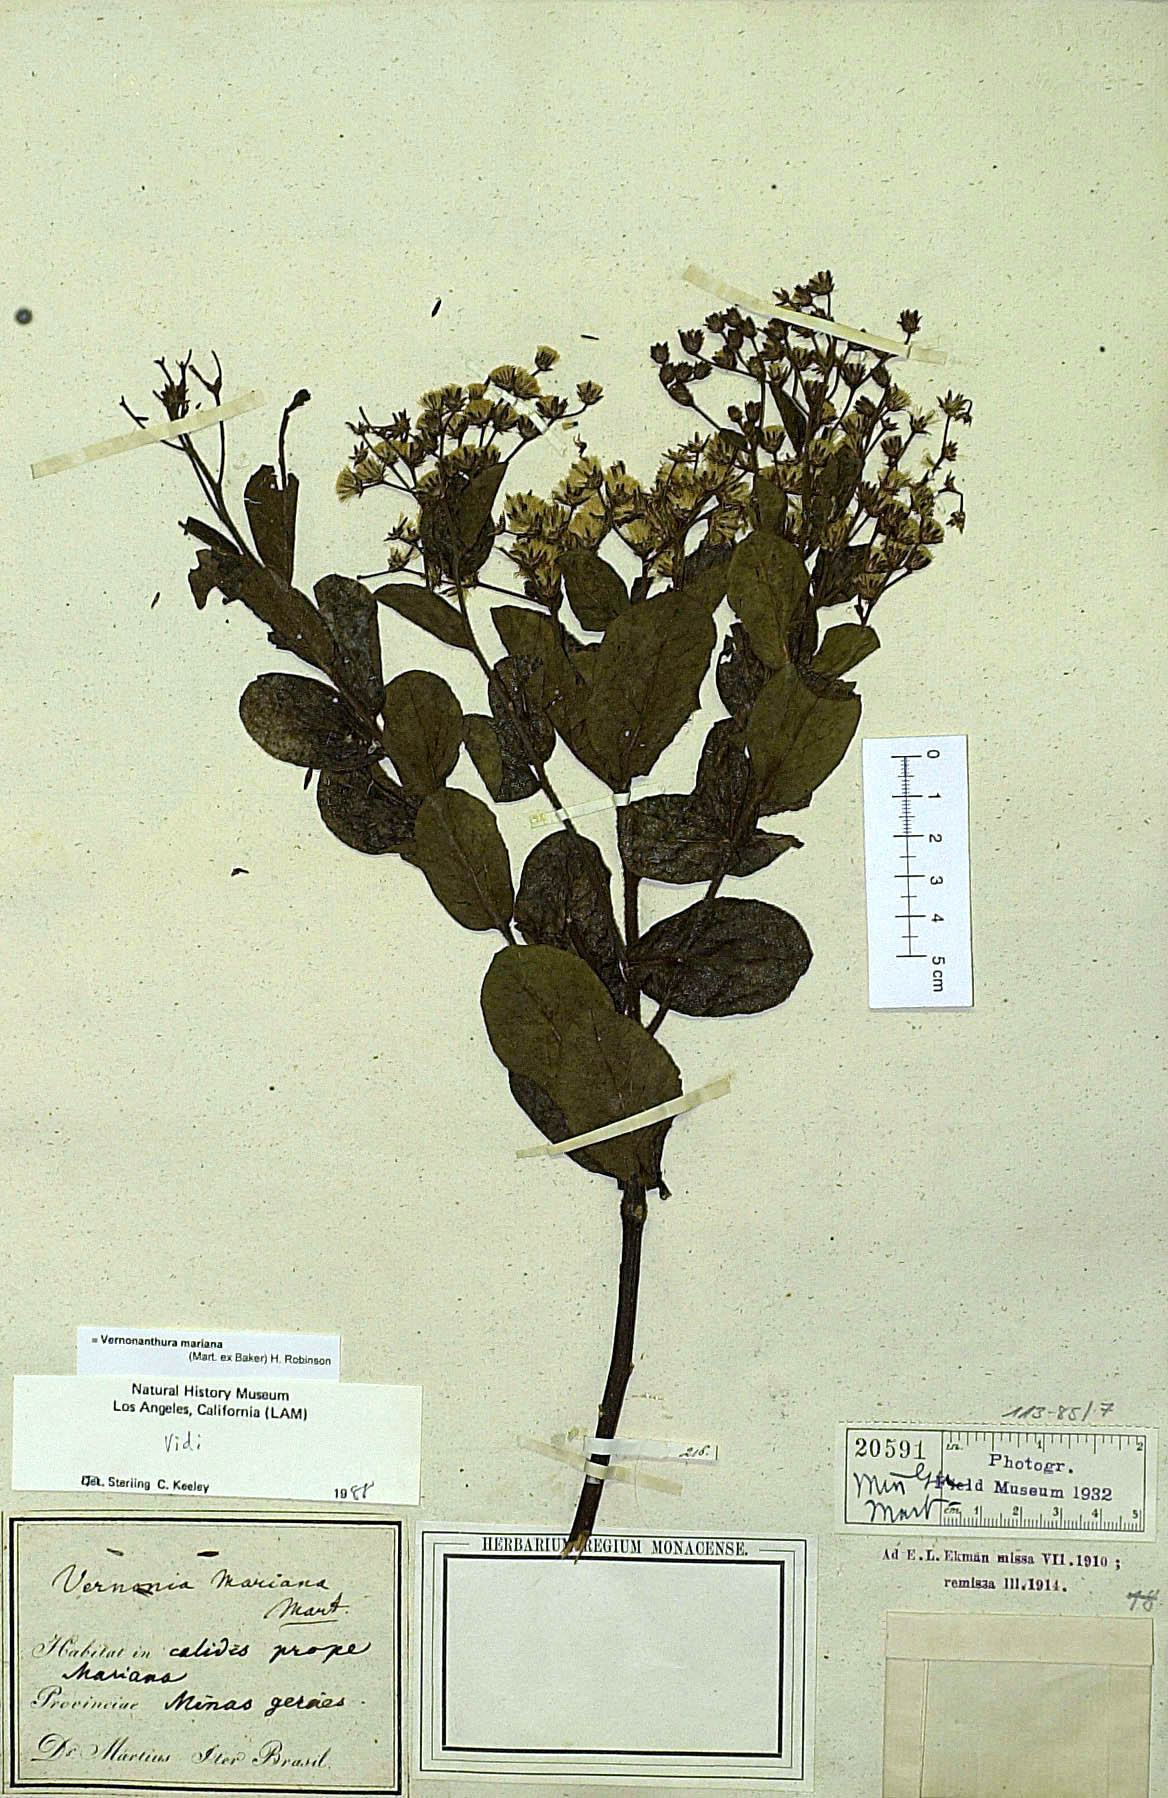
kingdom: Plantae
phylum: Tracheophyta
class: Magnoliopsida
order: Asterales
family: Asteraceae
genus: Vernonanthura
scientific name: Vernonanthura mariana
